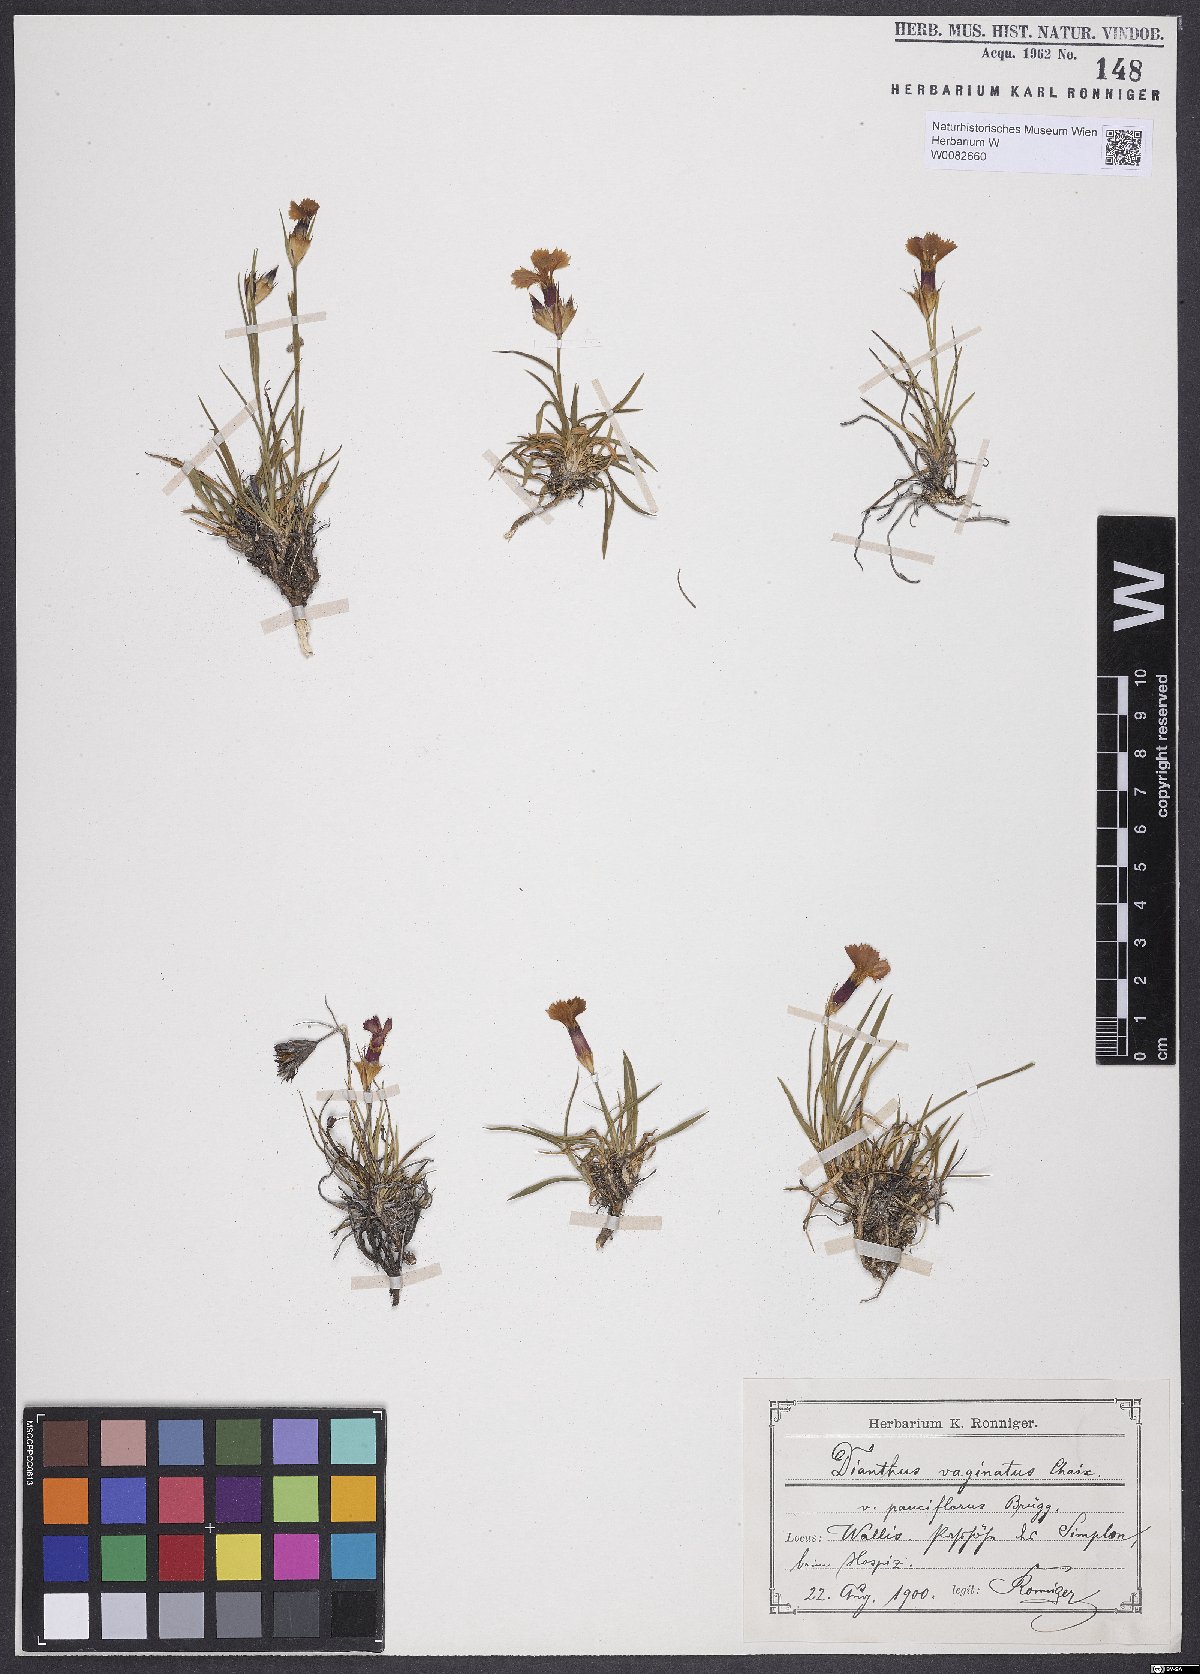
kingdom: Plantae
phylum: Tracheophyta
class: Magnoliopsida
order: Caryophyllales
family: Caryophyllaceae
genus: Dianthus
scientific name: Dianthus carthusianorum
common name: Carthusian pink
